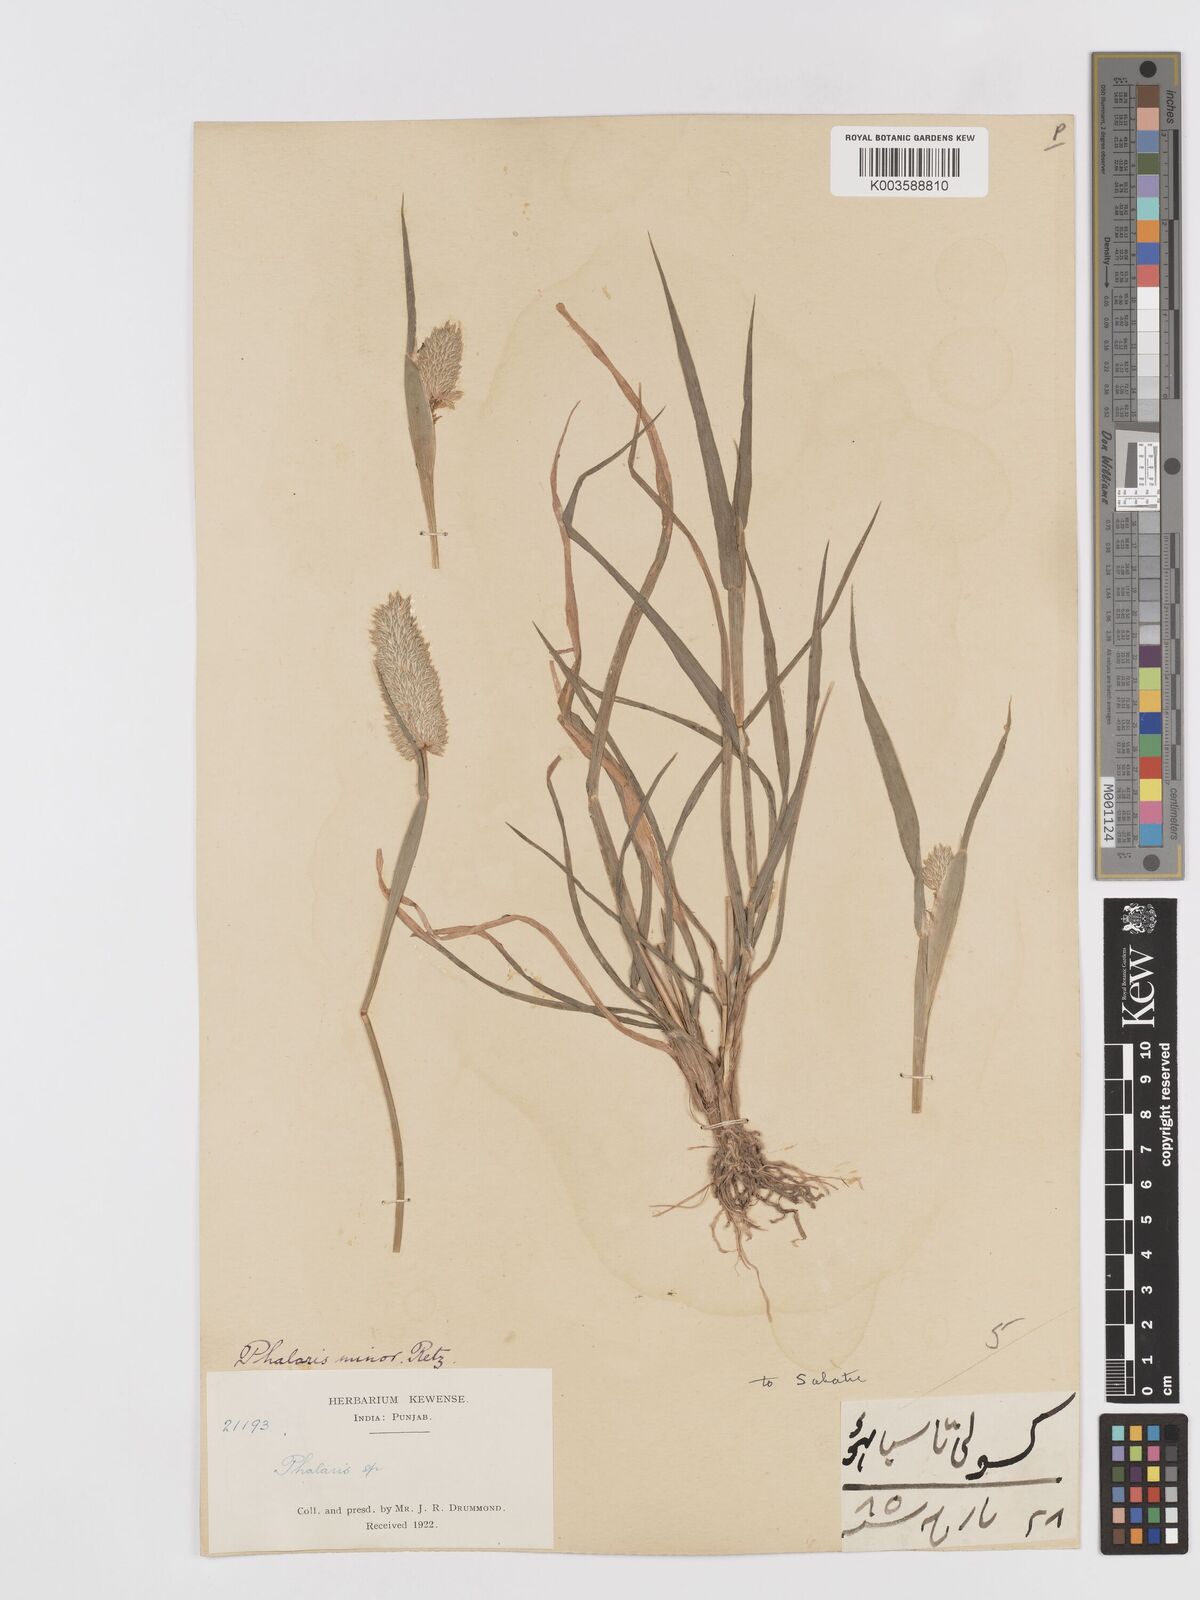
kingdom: Plantae
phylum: Tracheophyta
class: Liliopsida
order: Poales
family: Poaceae
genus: Phalaris
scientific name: Phalaris minor
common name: Littleseed canarygrass
